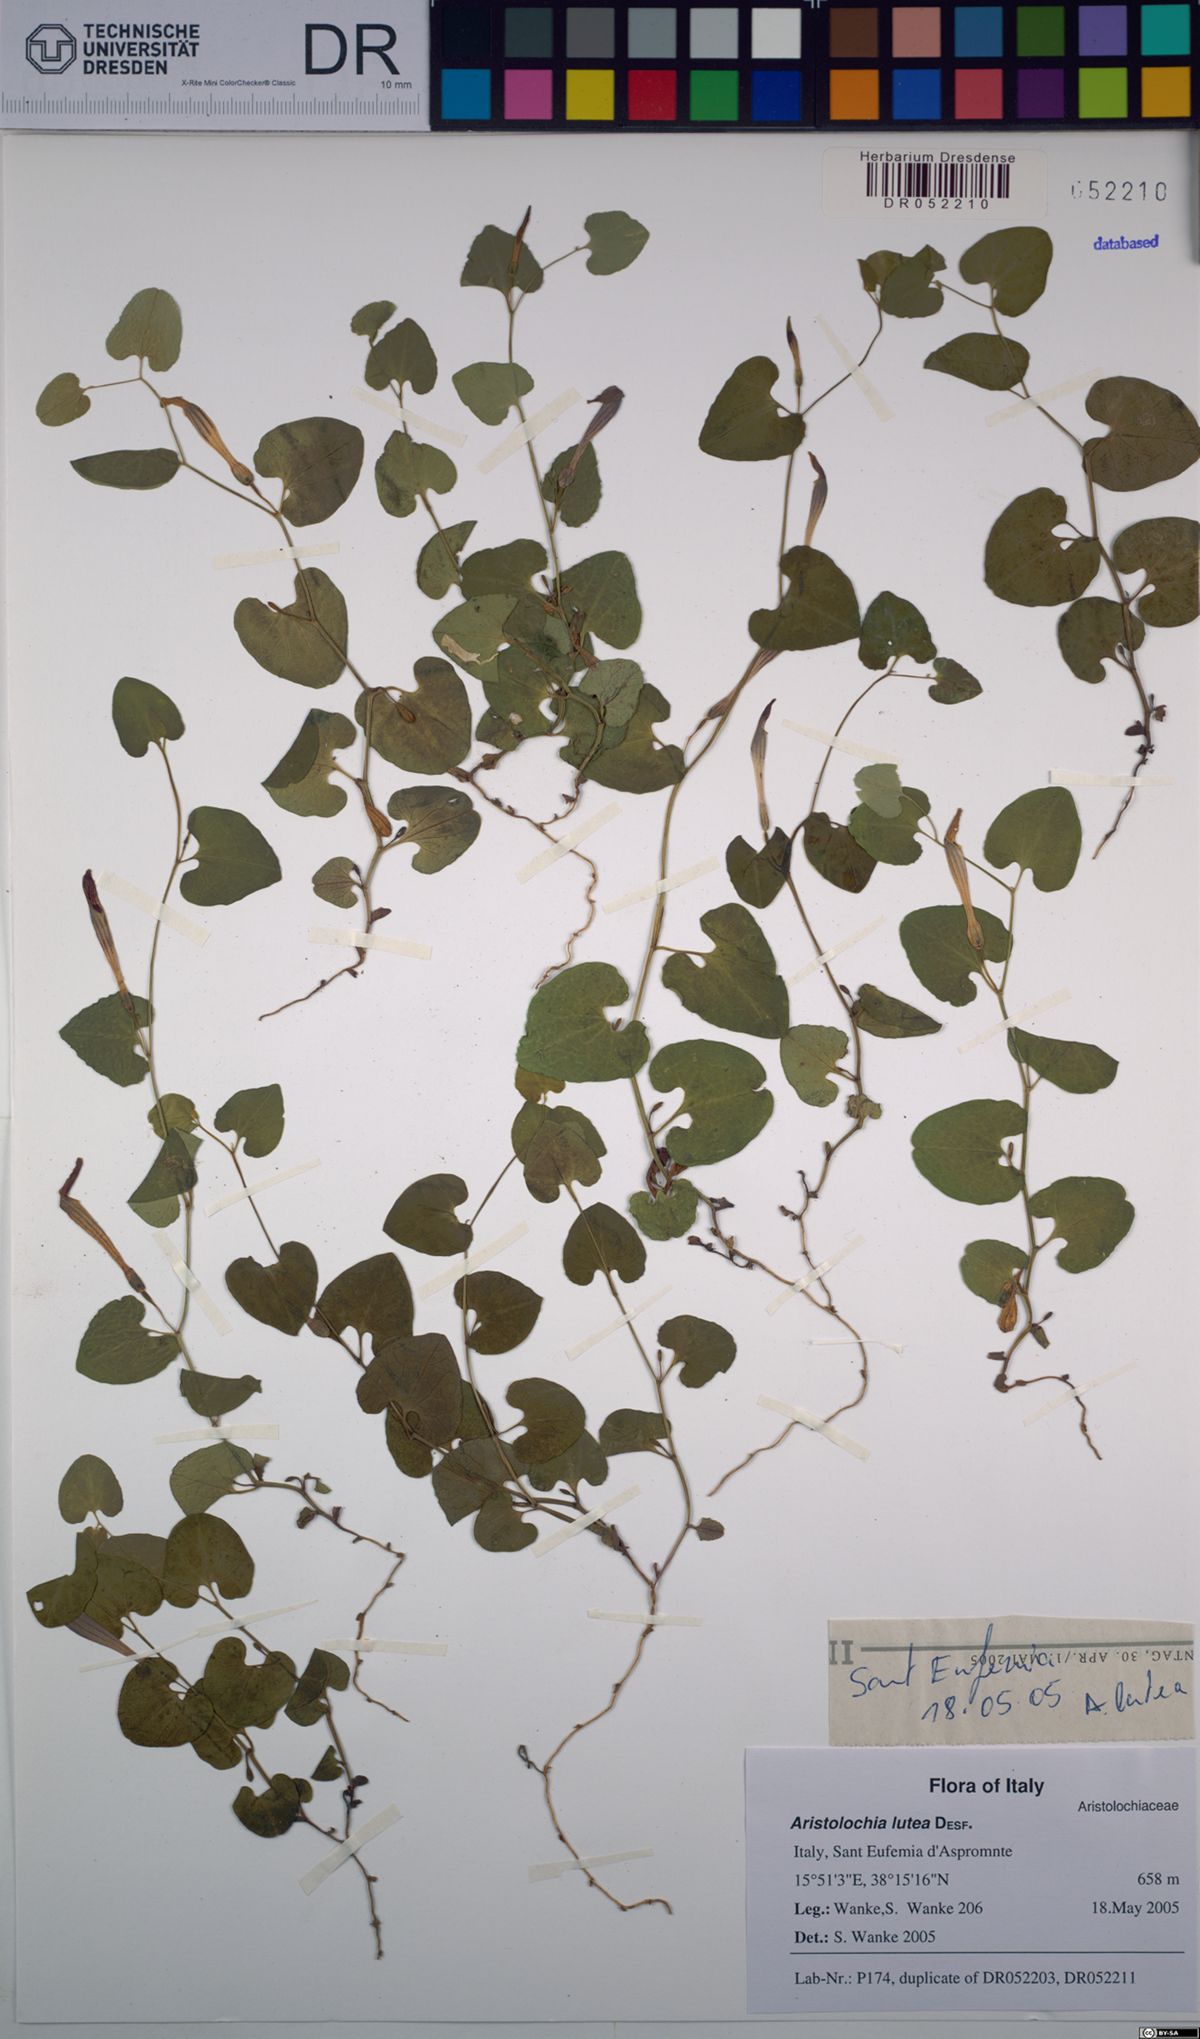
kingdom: Plantae
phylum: Tracheophyta
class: Magnoliopsida
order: Piperales
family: Aristolochiaceae
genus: Aristolochia
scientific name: Aristolochia lutea
